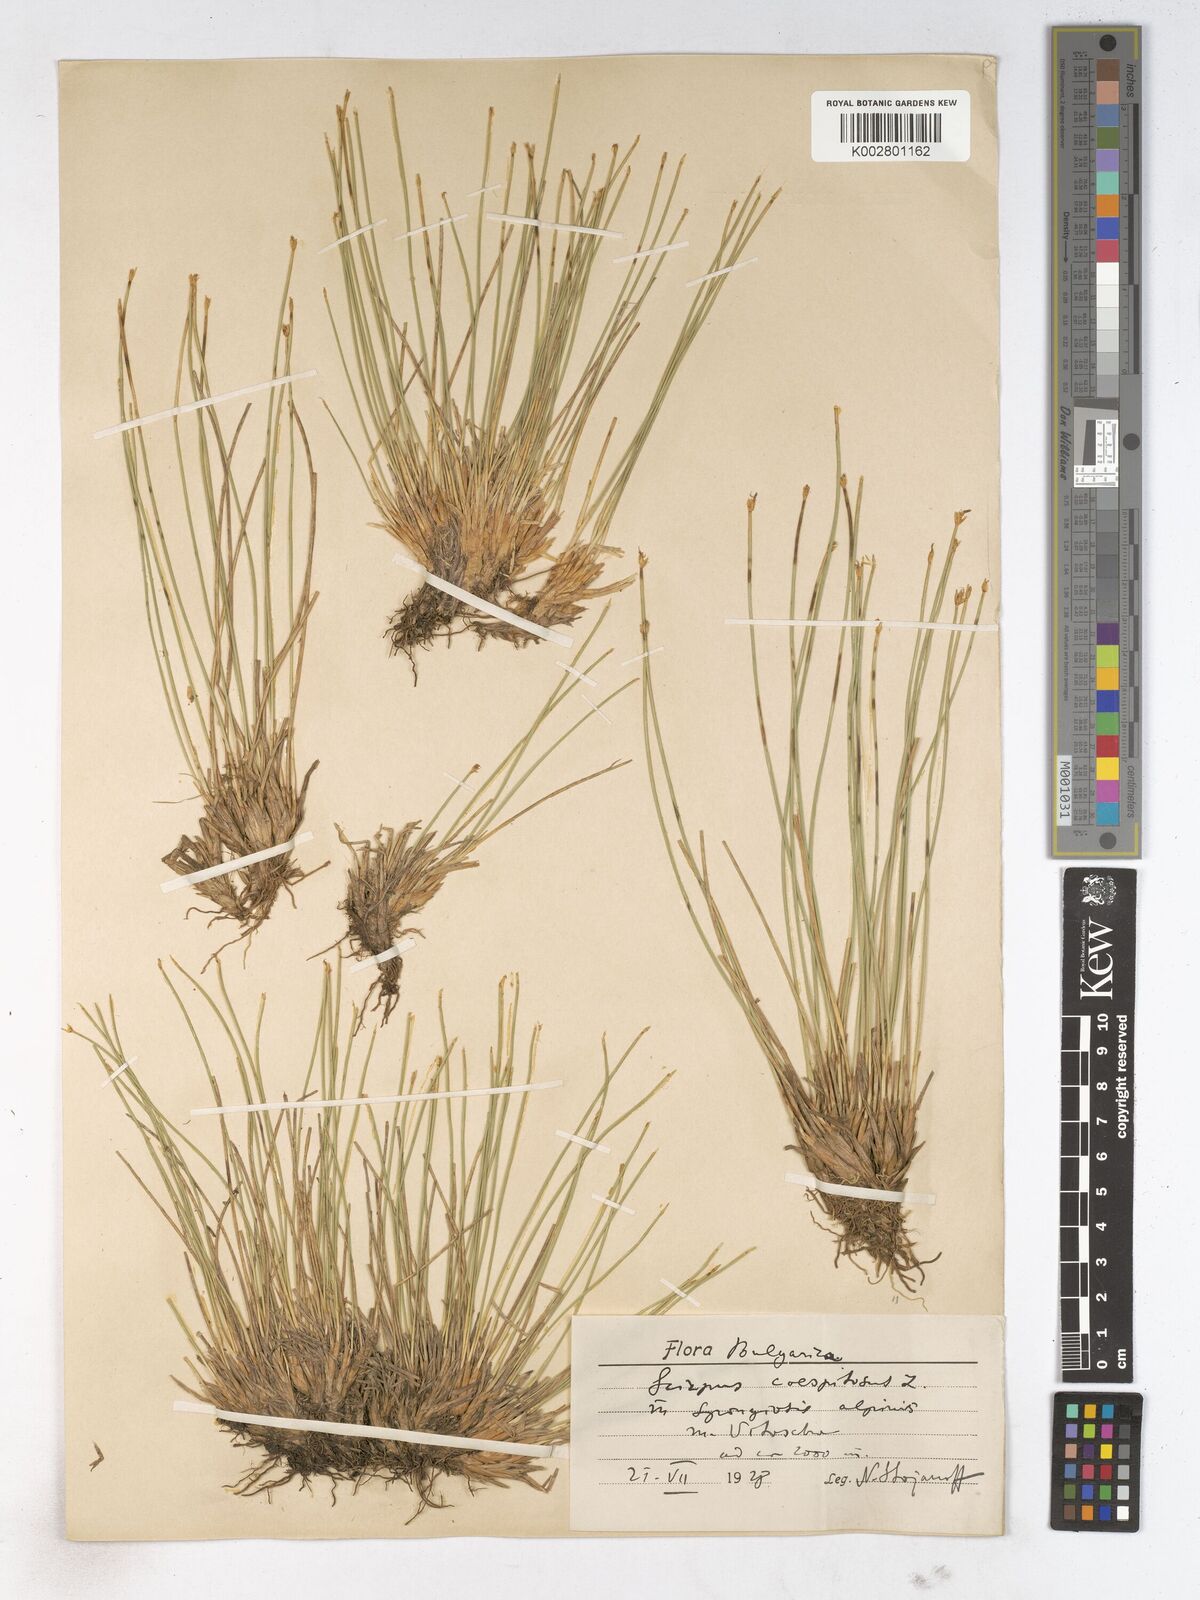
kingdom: Plantae
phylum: Tracheophyta
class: Liliopsida
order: Poales
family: Cyperaceae
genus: Trichophorum
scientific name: Trichophorum cespitosum
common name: Cespitose bulrush
